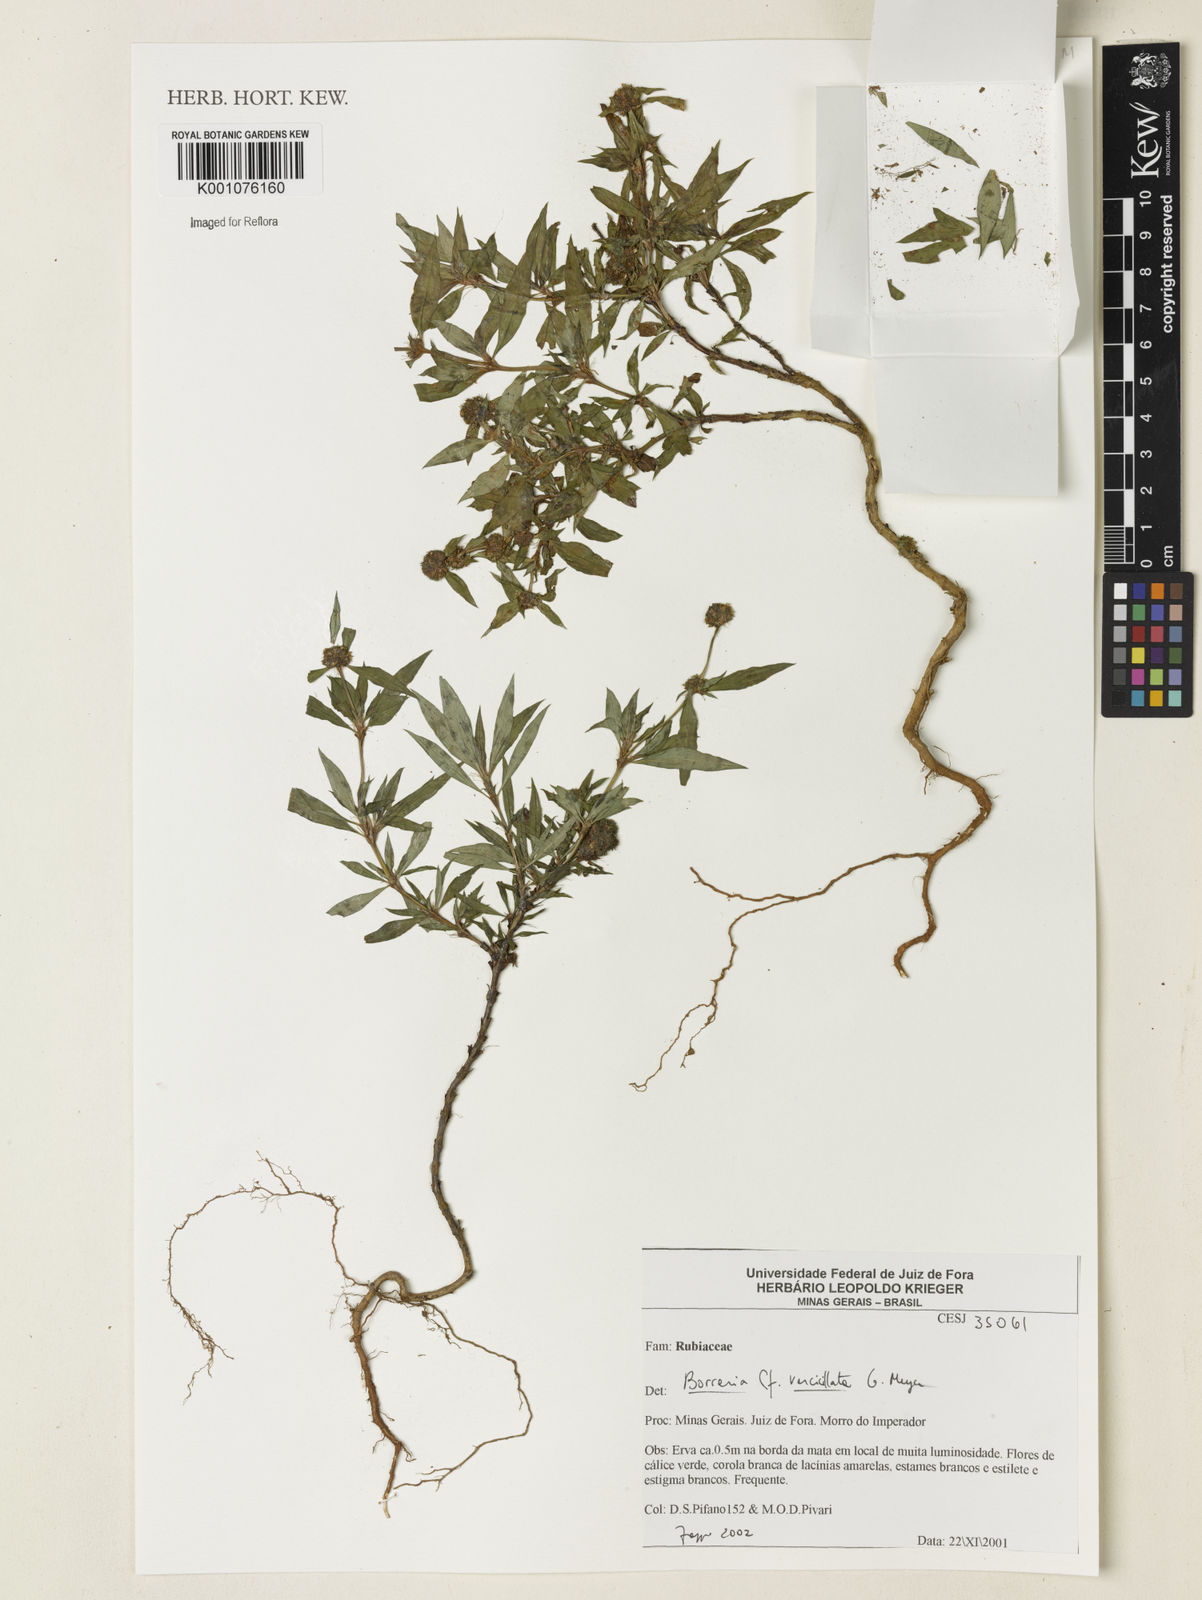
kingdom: Plantae
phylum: Tracheophyta
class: Magnoliopsida
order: Gentianales
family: Rubiaceae
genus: Spermacoce
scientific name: Spermacoce verticillata
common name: Shrubby false buttonweed
